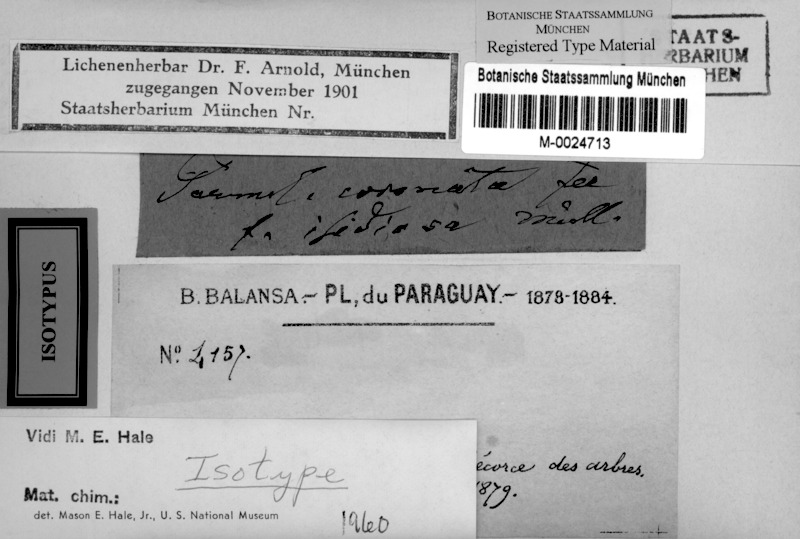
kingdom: Fungi
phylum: Ascomycota
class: Lecanoromycetes
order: Lecanorales
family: Parmeliaceae
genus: Bulbothrix
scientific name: Bulbothrix fungicola
